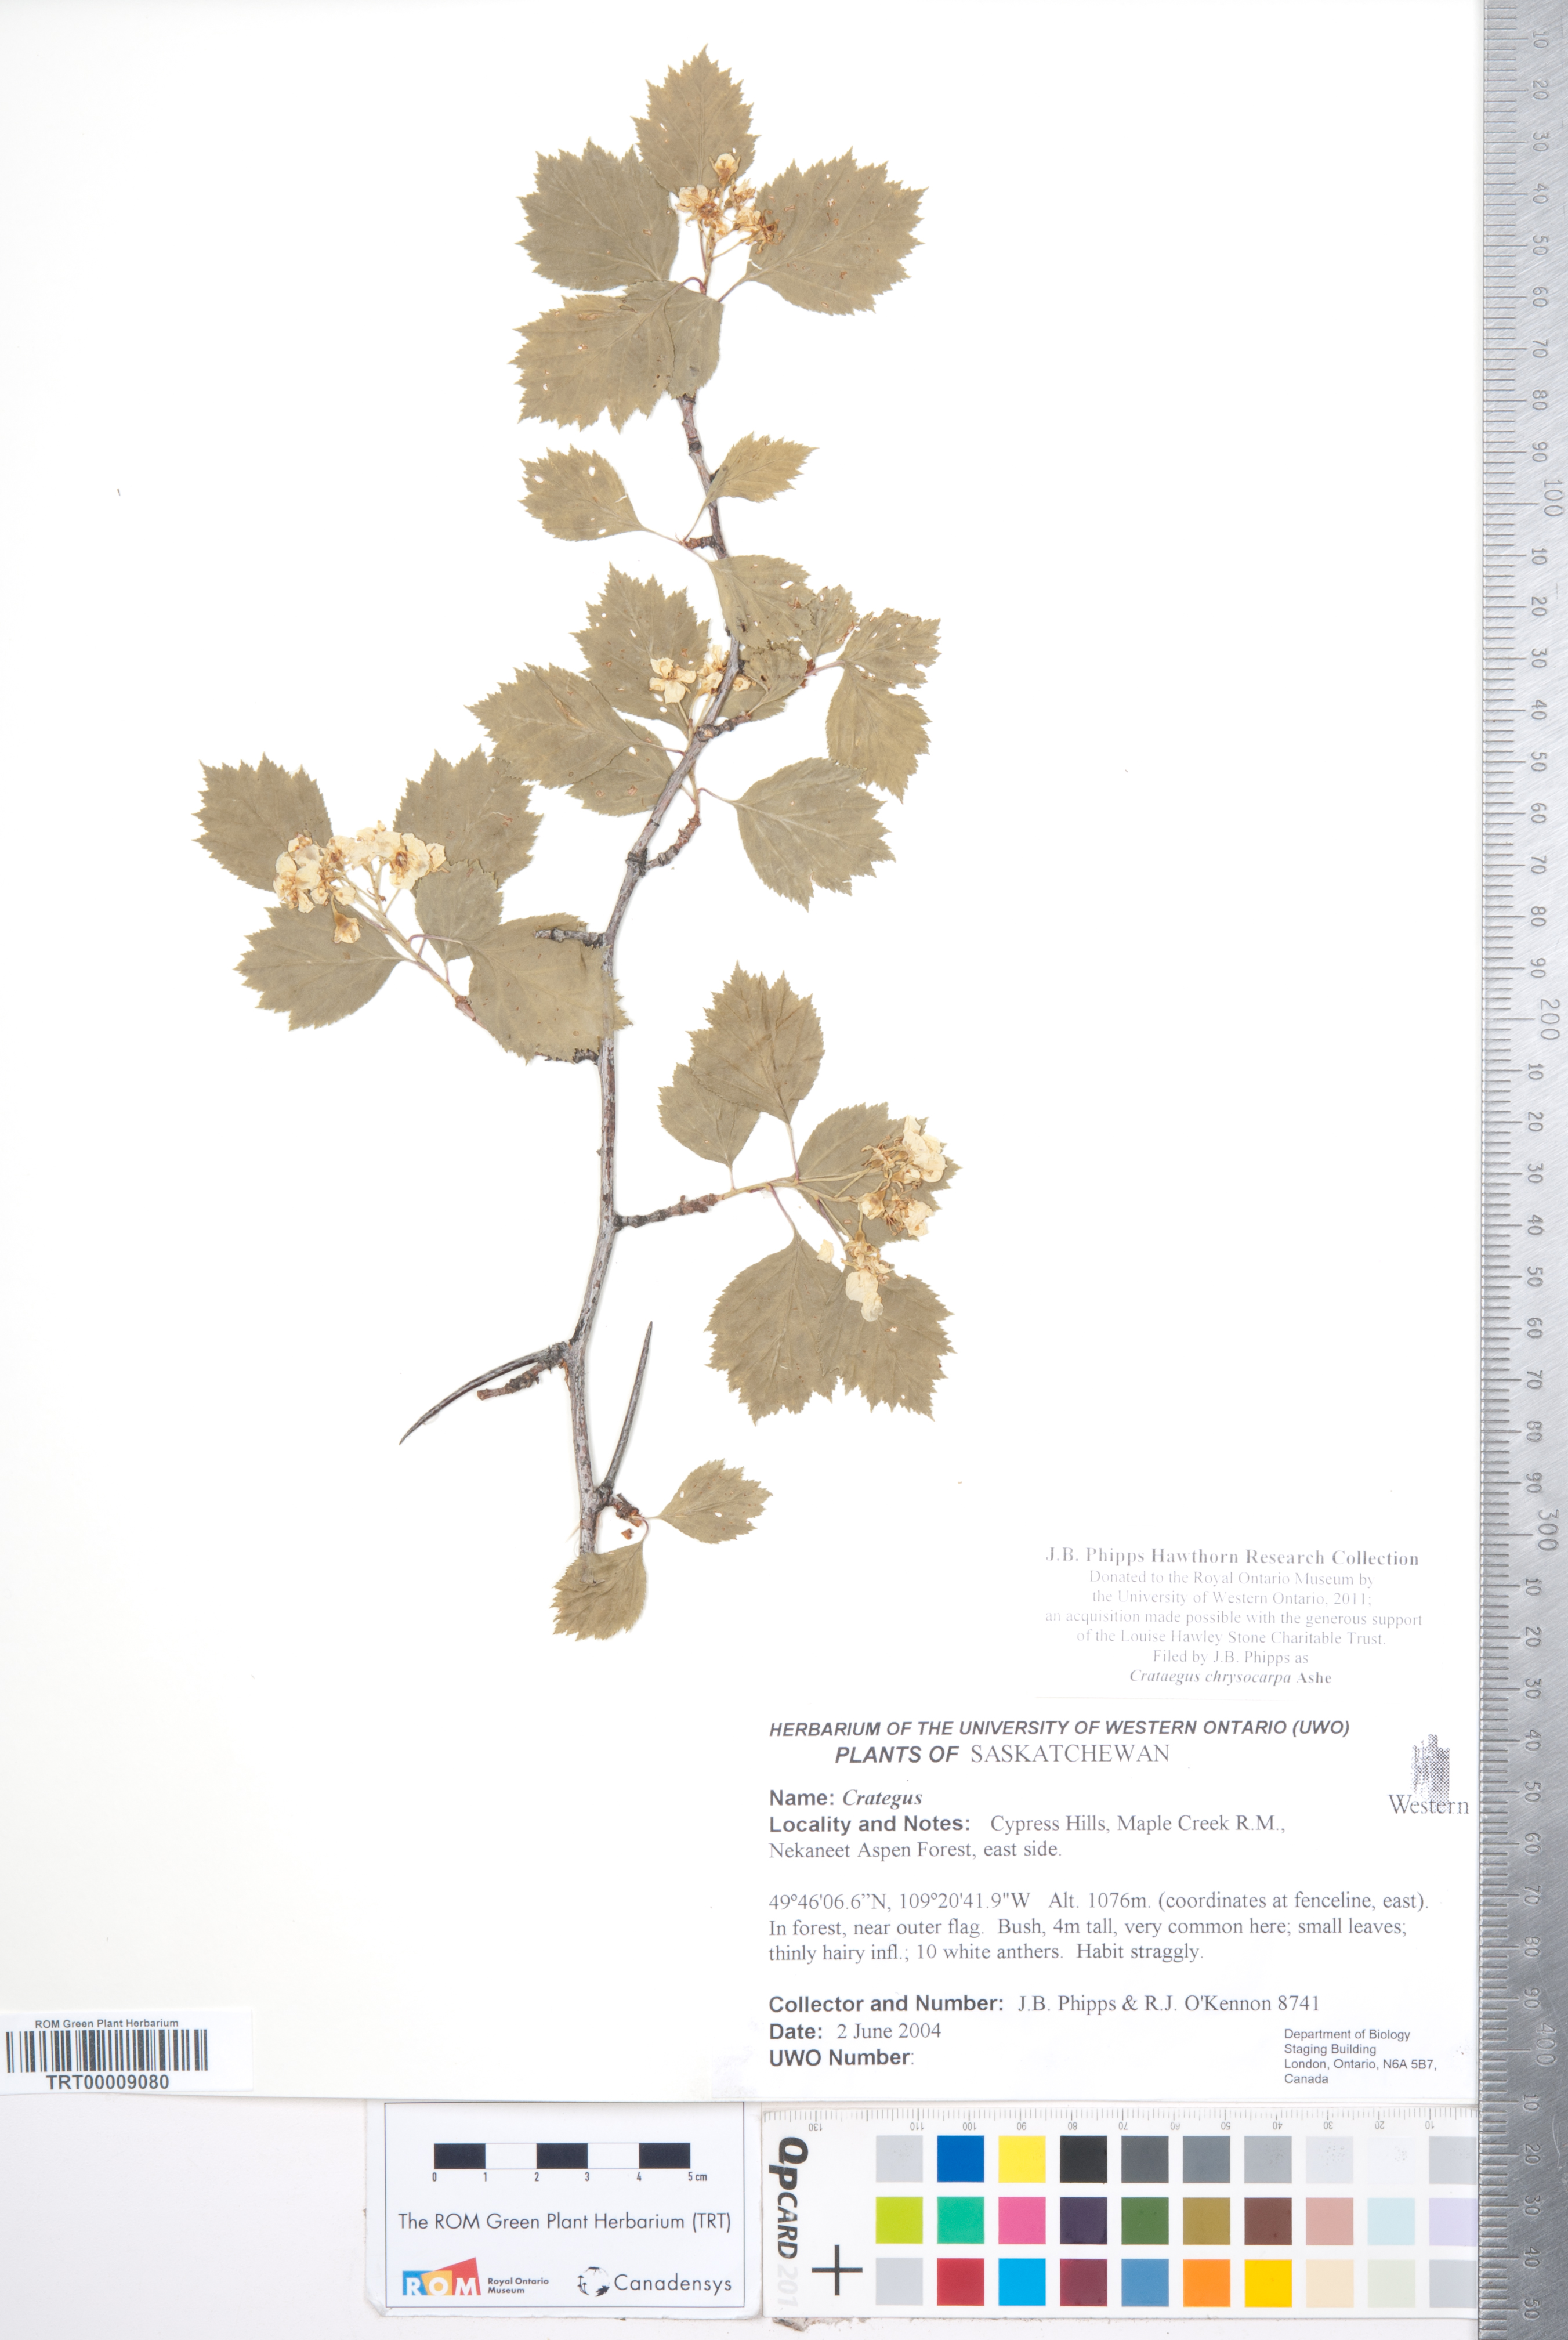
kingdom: Plantae
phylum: Tracheophyta
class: Magnoliopsida
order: Rosales
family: Rosaceae
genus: Crataegus
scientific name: Crataegus chrysocarpa
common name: Fire-berry hawthorn
